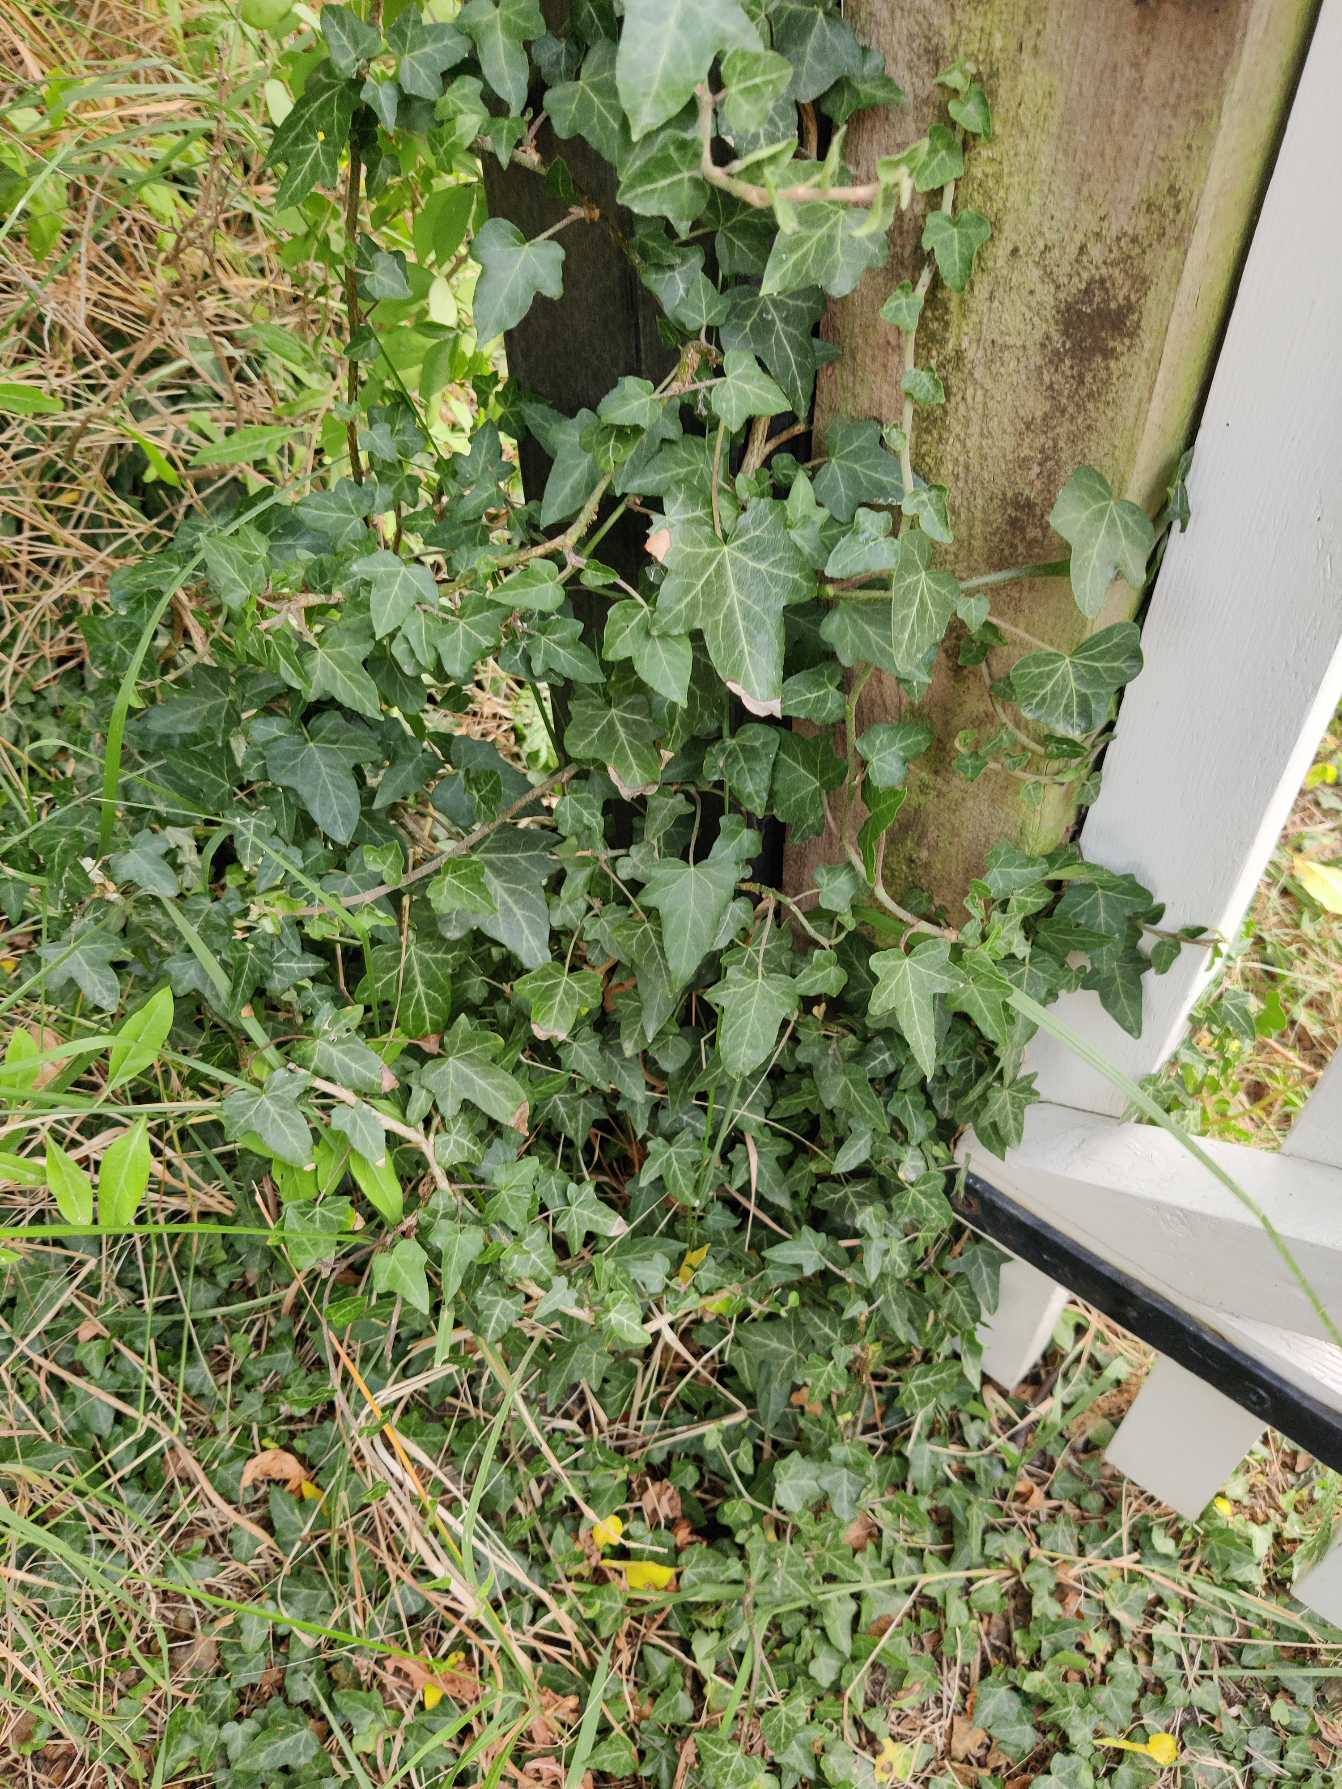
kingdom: Plantae
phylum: Tracheophyta
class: Magnoliopsida
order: Apiales
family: Araliaceae
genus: Hedera
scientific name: Hedera helix
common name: Vedbend
